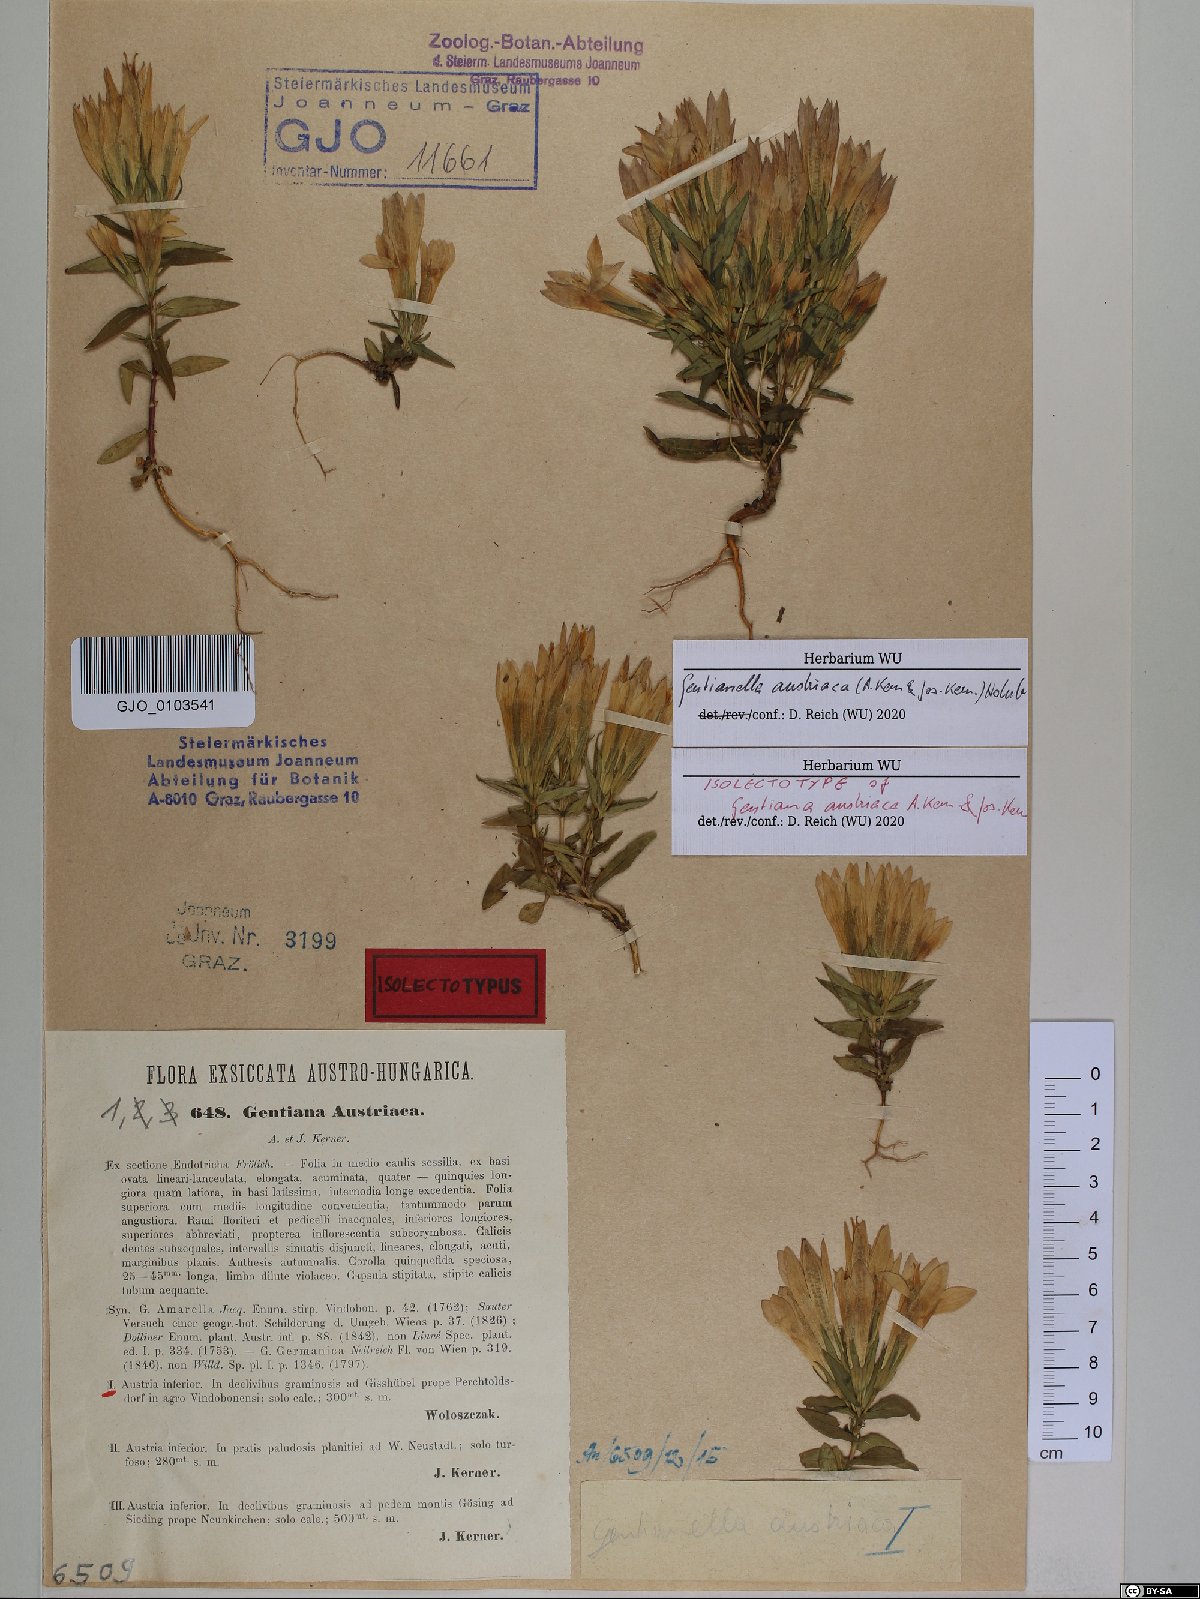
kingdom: Plantae
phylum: Tracheophyta
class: Magnoliopsida
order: Gentianales
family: Gentianaceae
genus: Gentianella
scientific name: Gentianella austriaca
